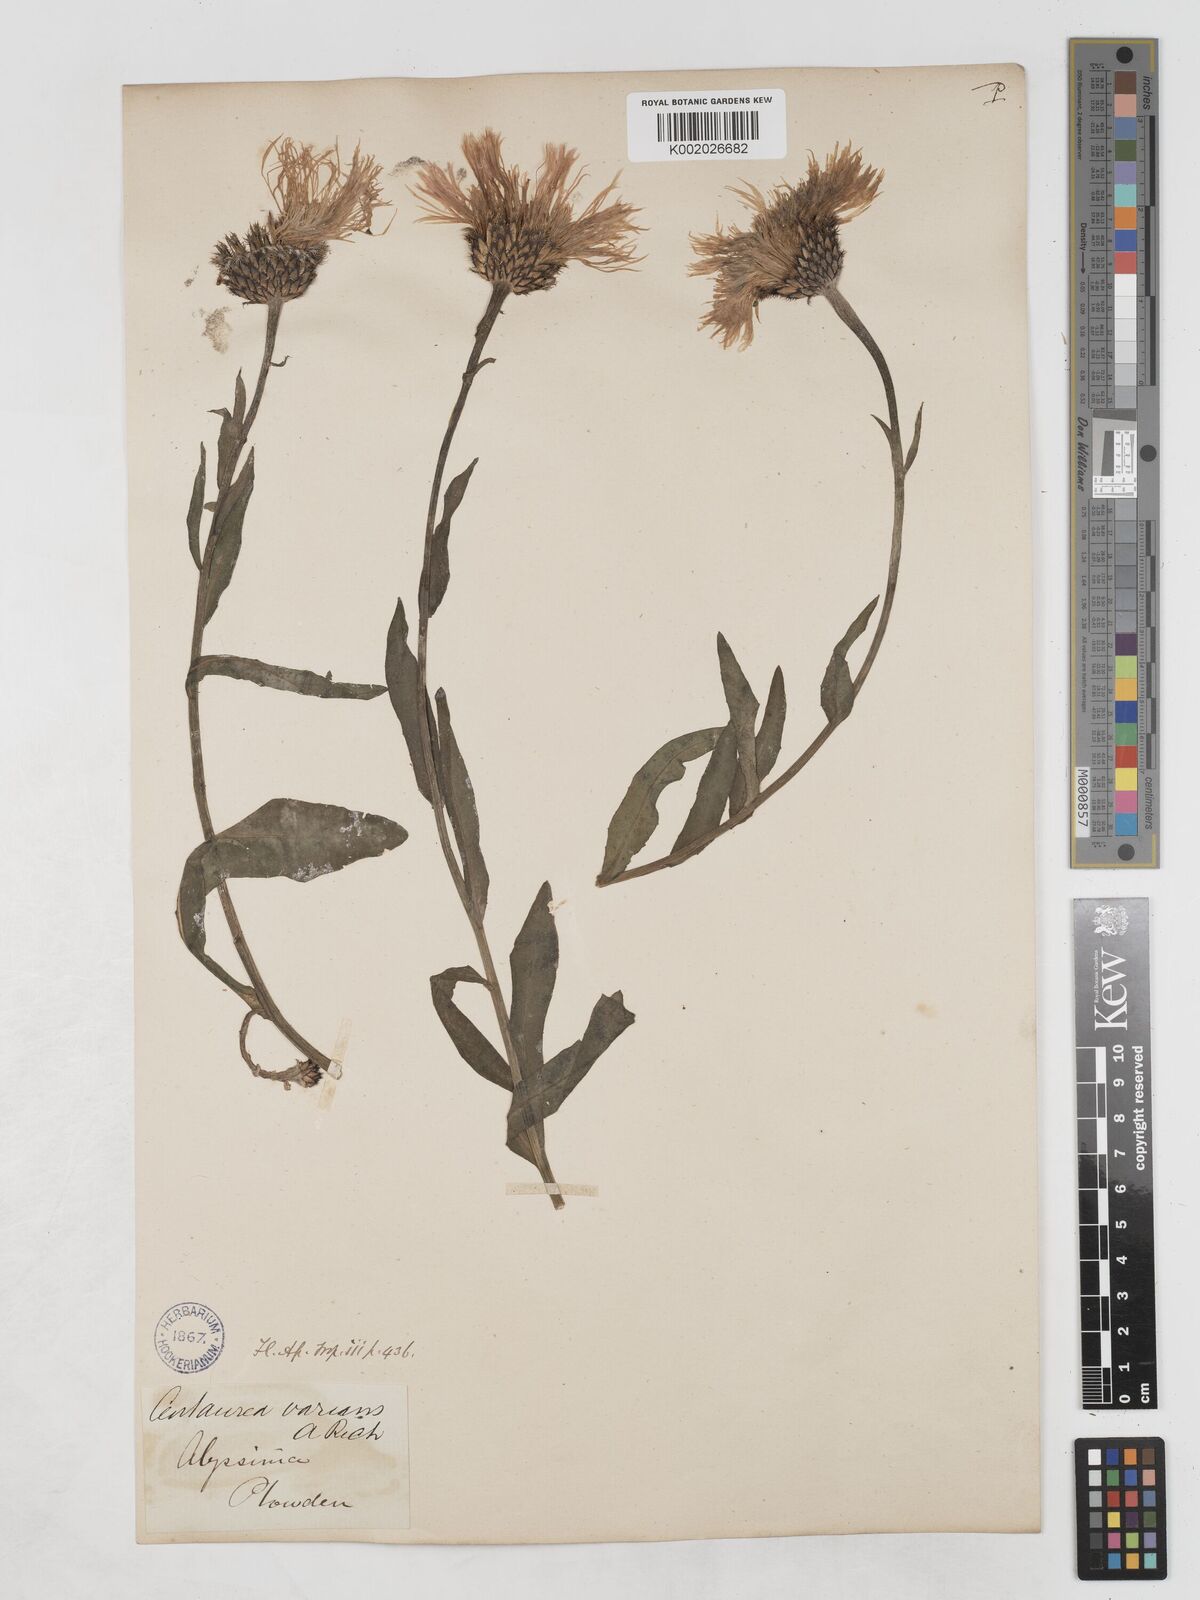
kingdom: Plantae
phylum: Tracheophyta
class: Magnoliopsida
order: Asterales
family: Asteraceae
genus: Plectocephalus
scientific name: Plectocephalus varians
